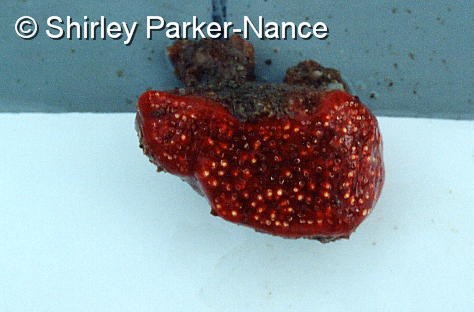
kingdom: Animalia
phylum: Chordata
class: Ascidiacea
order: Aplousobranchia
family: Polyclinidae
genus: Aplidium
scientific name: Aplidium flavolineatum
